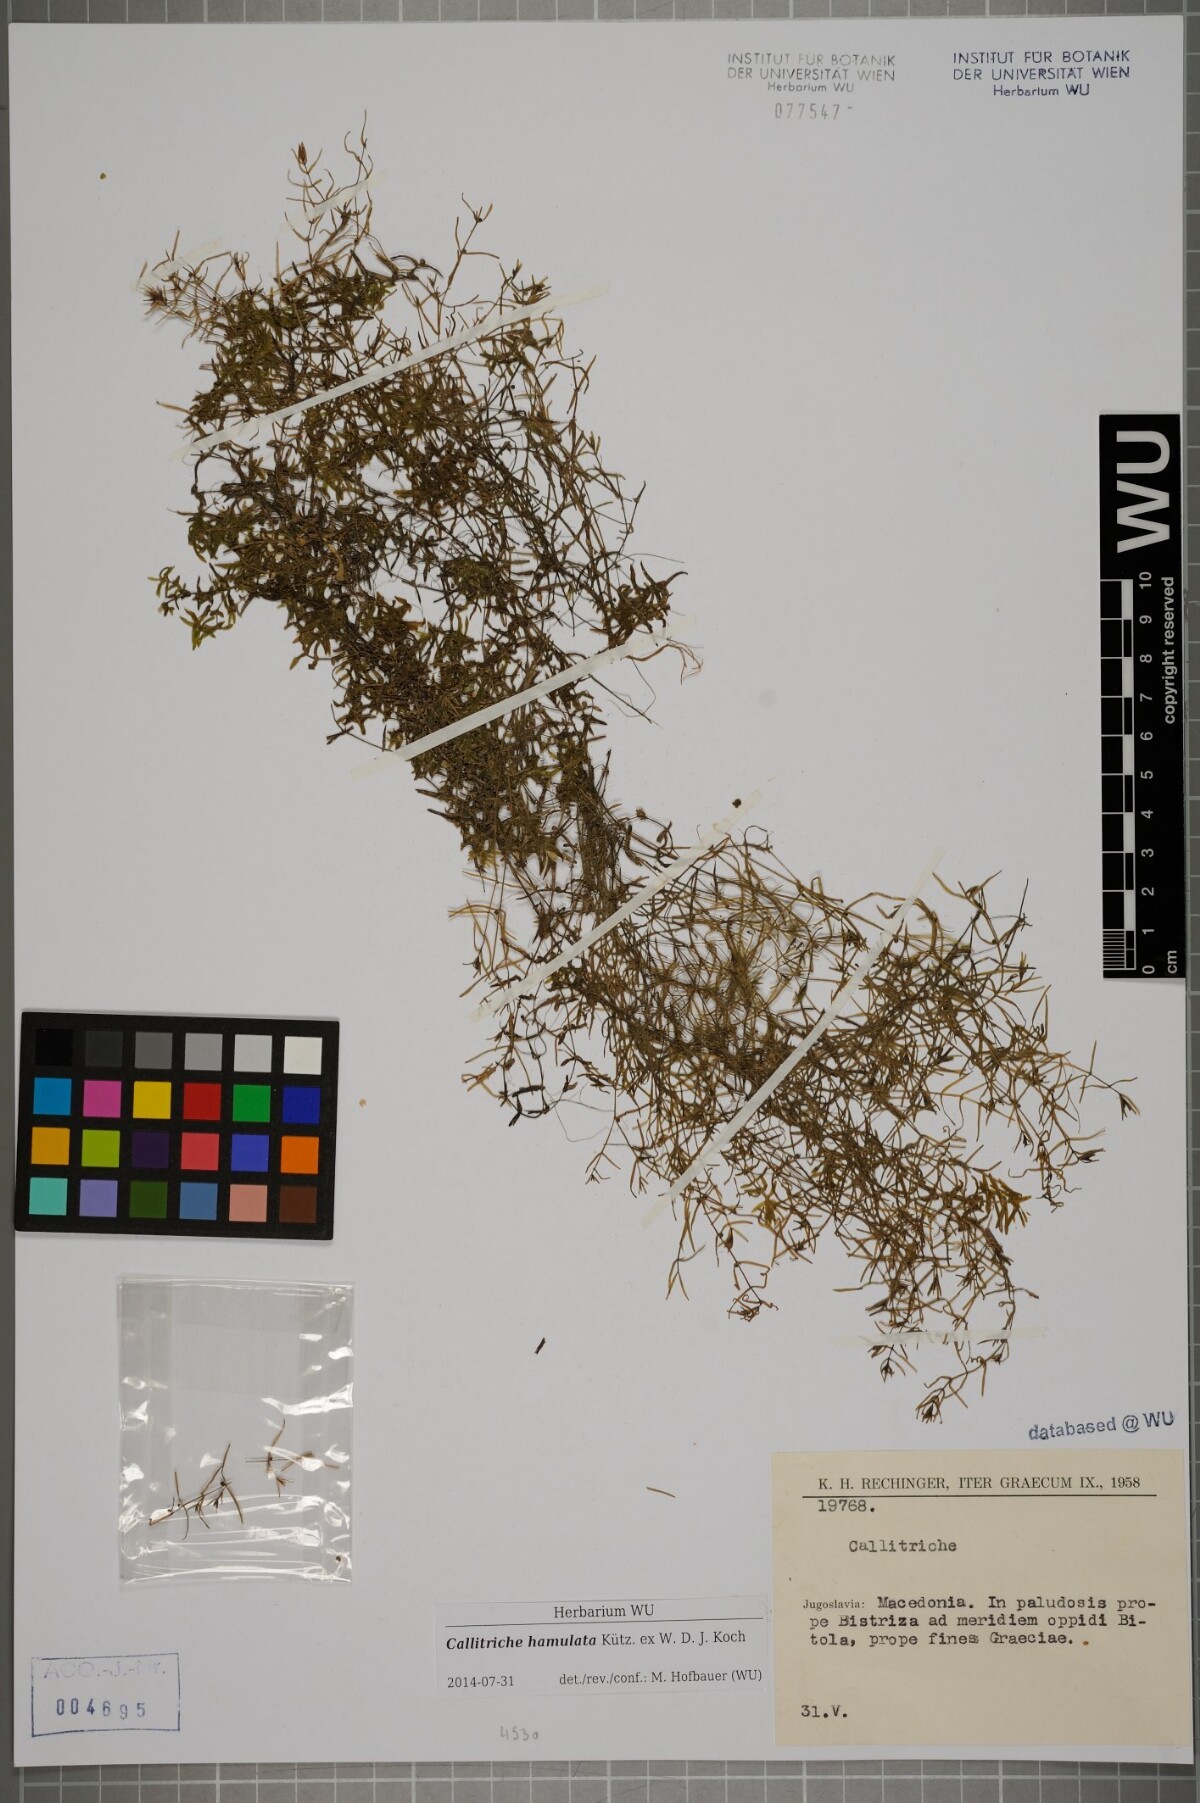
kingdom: Plantae
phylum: Tracheophyta
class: Magnoliopsida
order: Lamiales
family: Plantaginaceae
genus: Callitriche
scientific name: Callitriche hamulata
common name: Intermediate water-starwort
